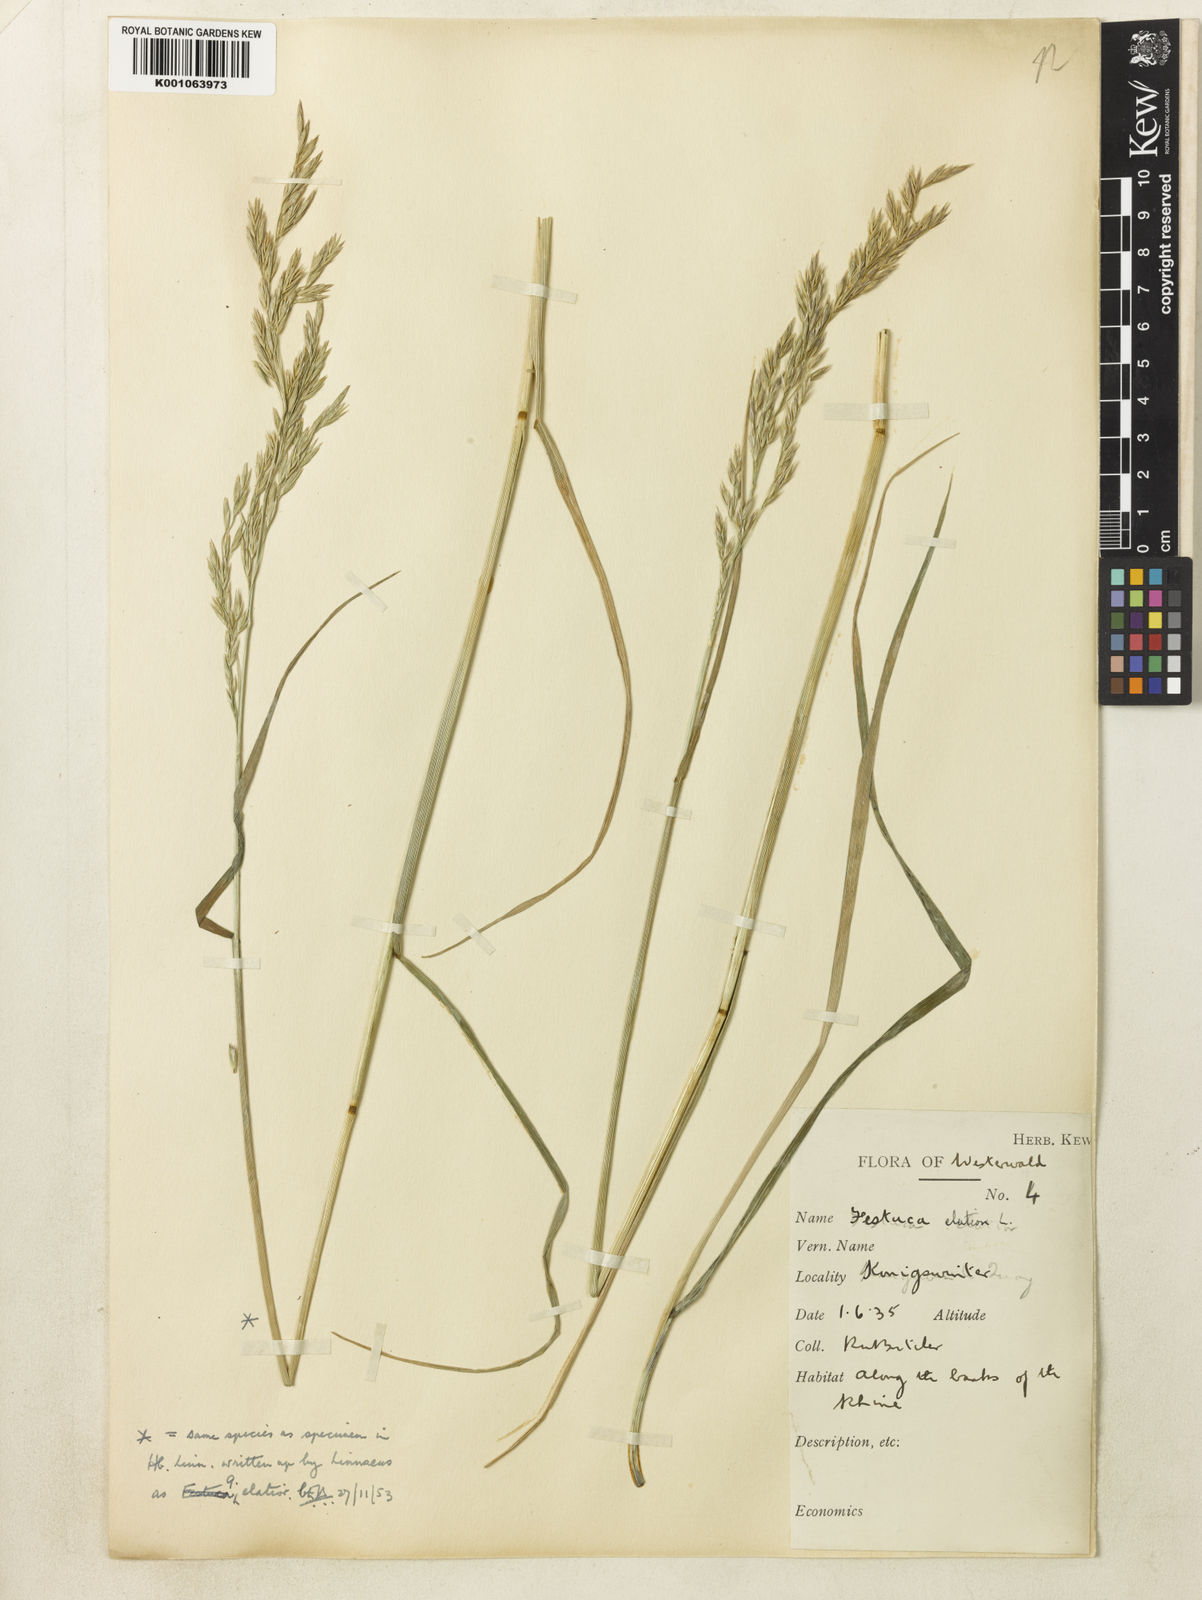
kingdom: Plantae
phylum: Tracheophyta
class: Liliopsida
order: Poales
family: Poaceae
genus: Lolium
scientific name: Lolium arundinaceum
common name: Reed fescue
